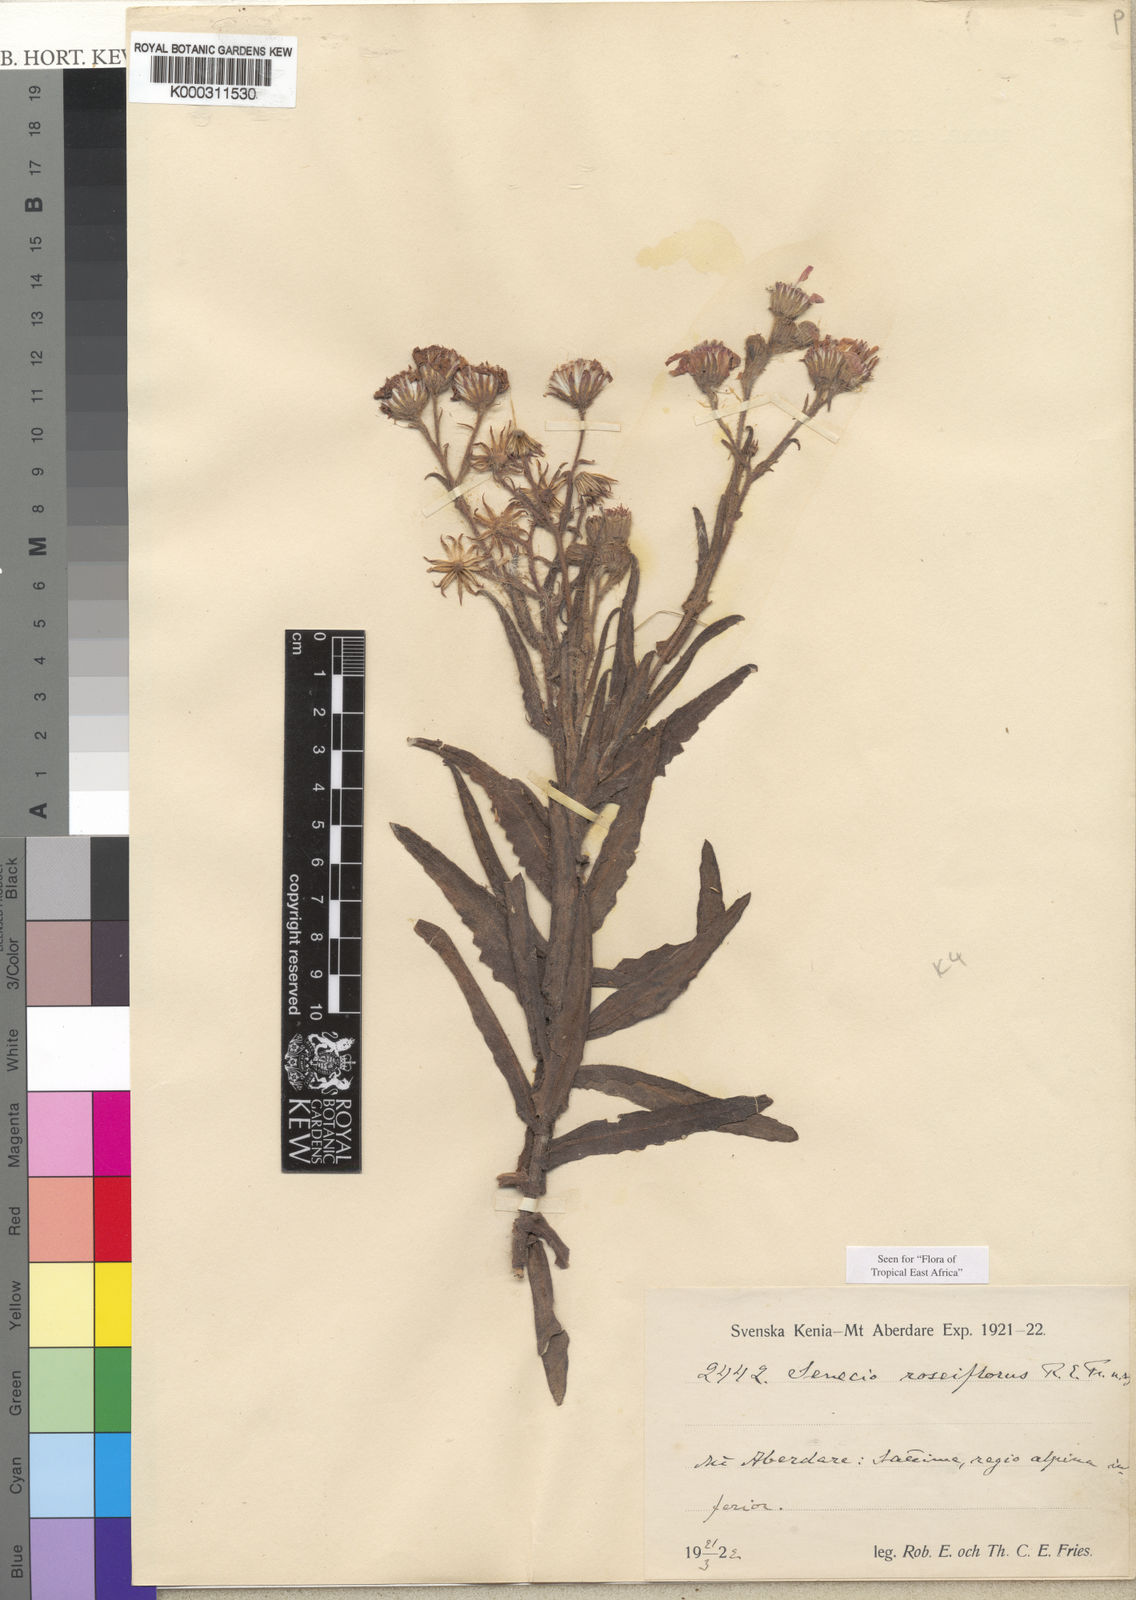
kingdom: Plantae
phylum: Tracheophyta
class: Magnoliopsida
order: Asterales
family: Asteraceae
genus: Senecio
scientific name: Senecio roseiflorus
